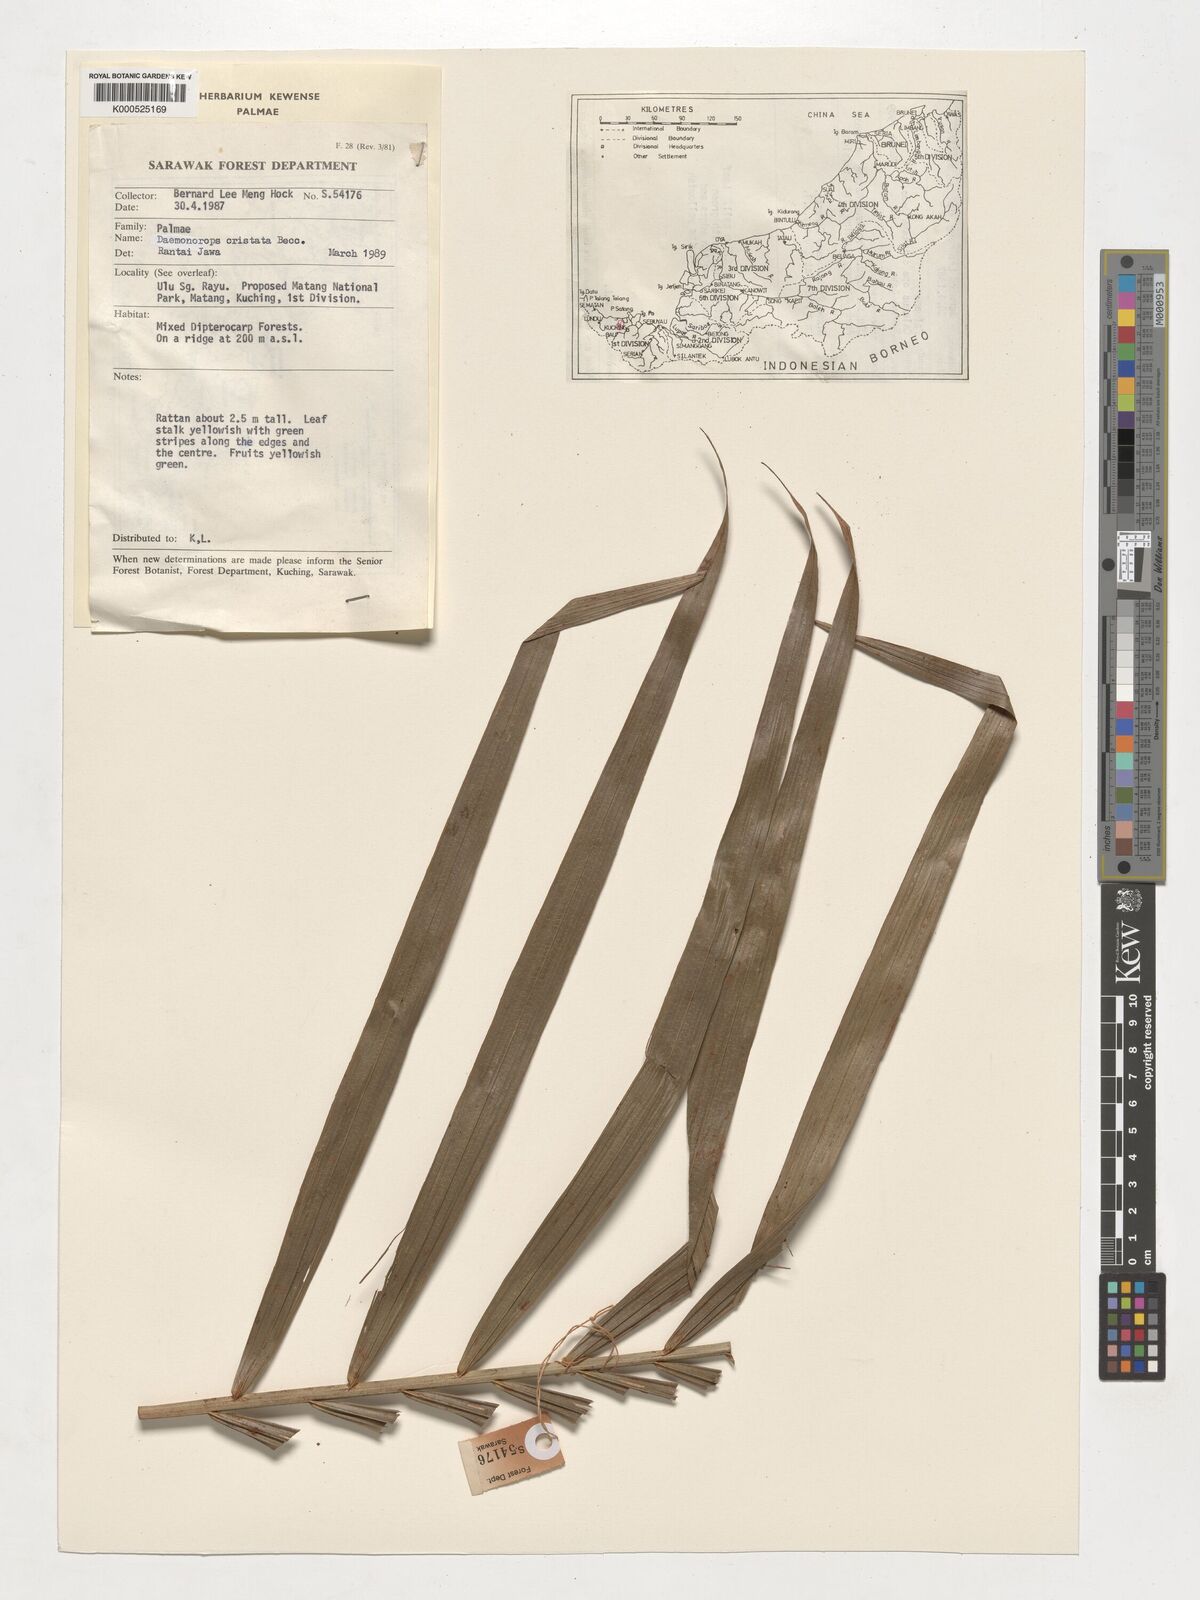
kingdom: Plantae
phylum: Tracheophyta
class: Liliopsida
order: Arecales
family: Arecaceae
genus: Calamus
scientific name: Calamus cristatus
